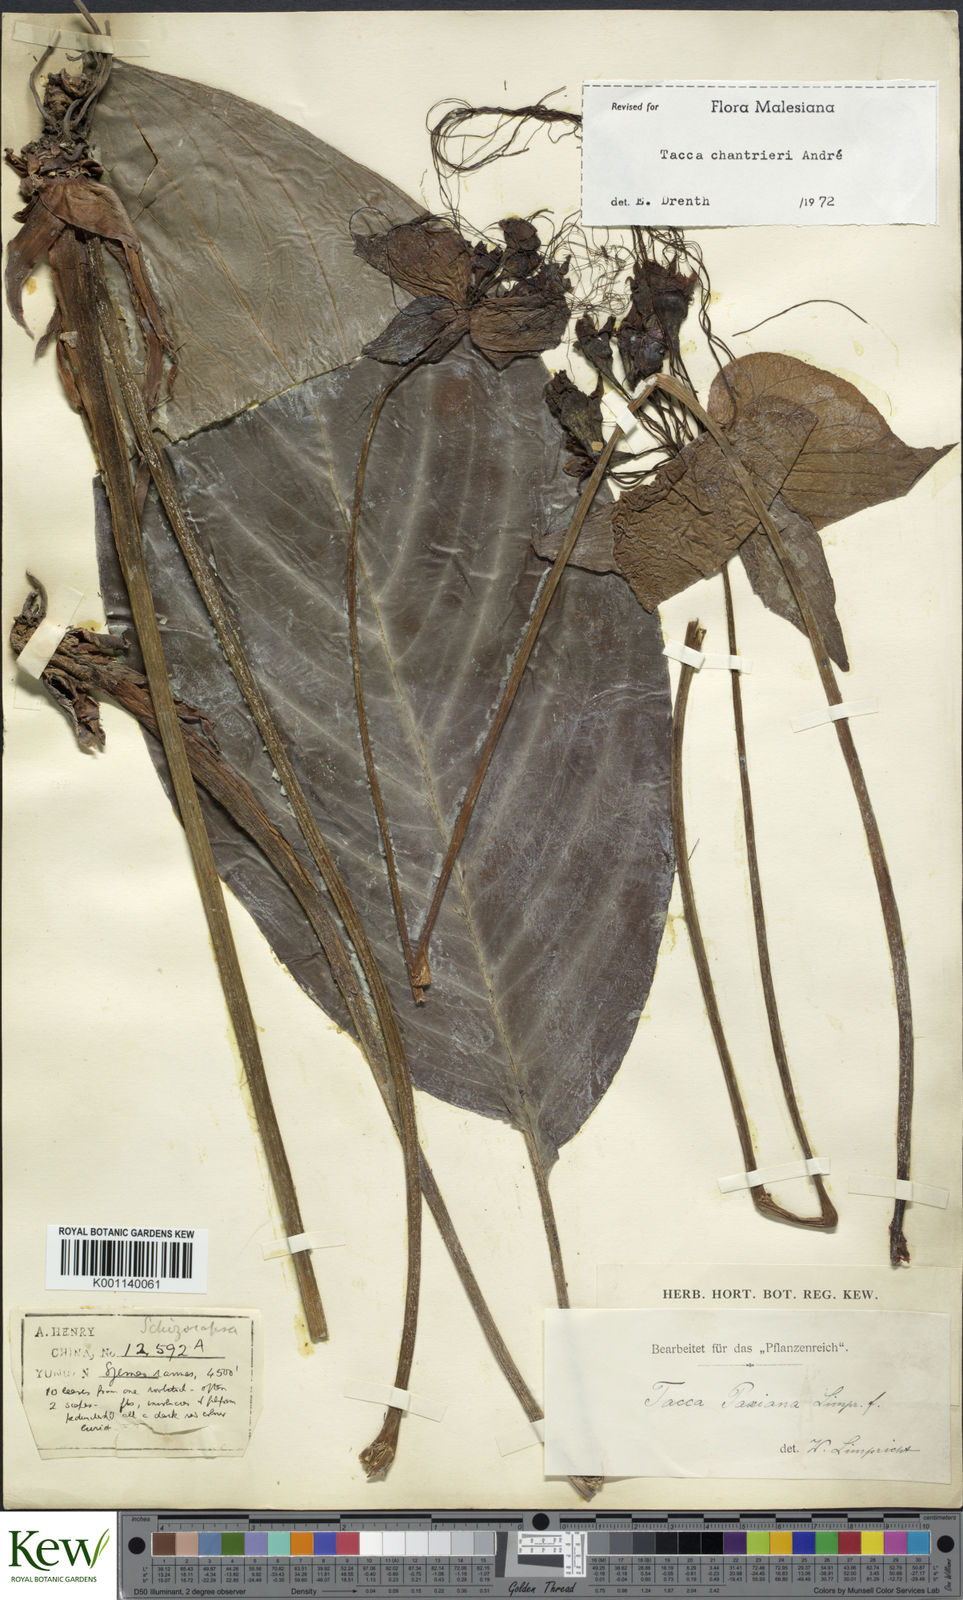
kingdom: Plantae
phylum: Tracheophyta
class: Liliopsida
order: Dioscoreales
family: Dioscoreaceae
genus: Tacca
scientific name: Tacca
